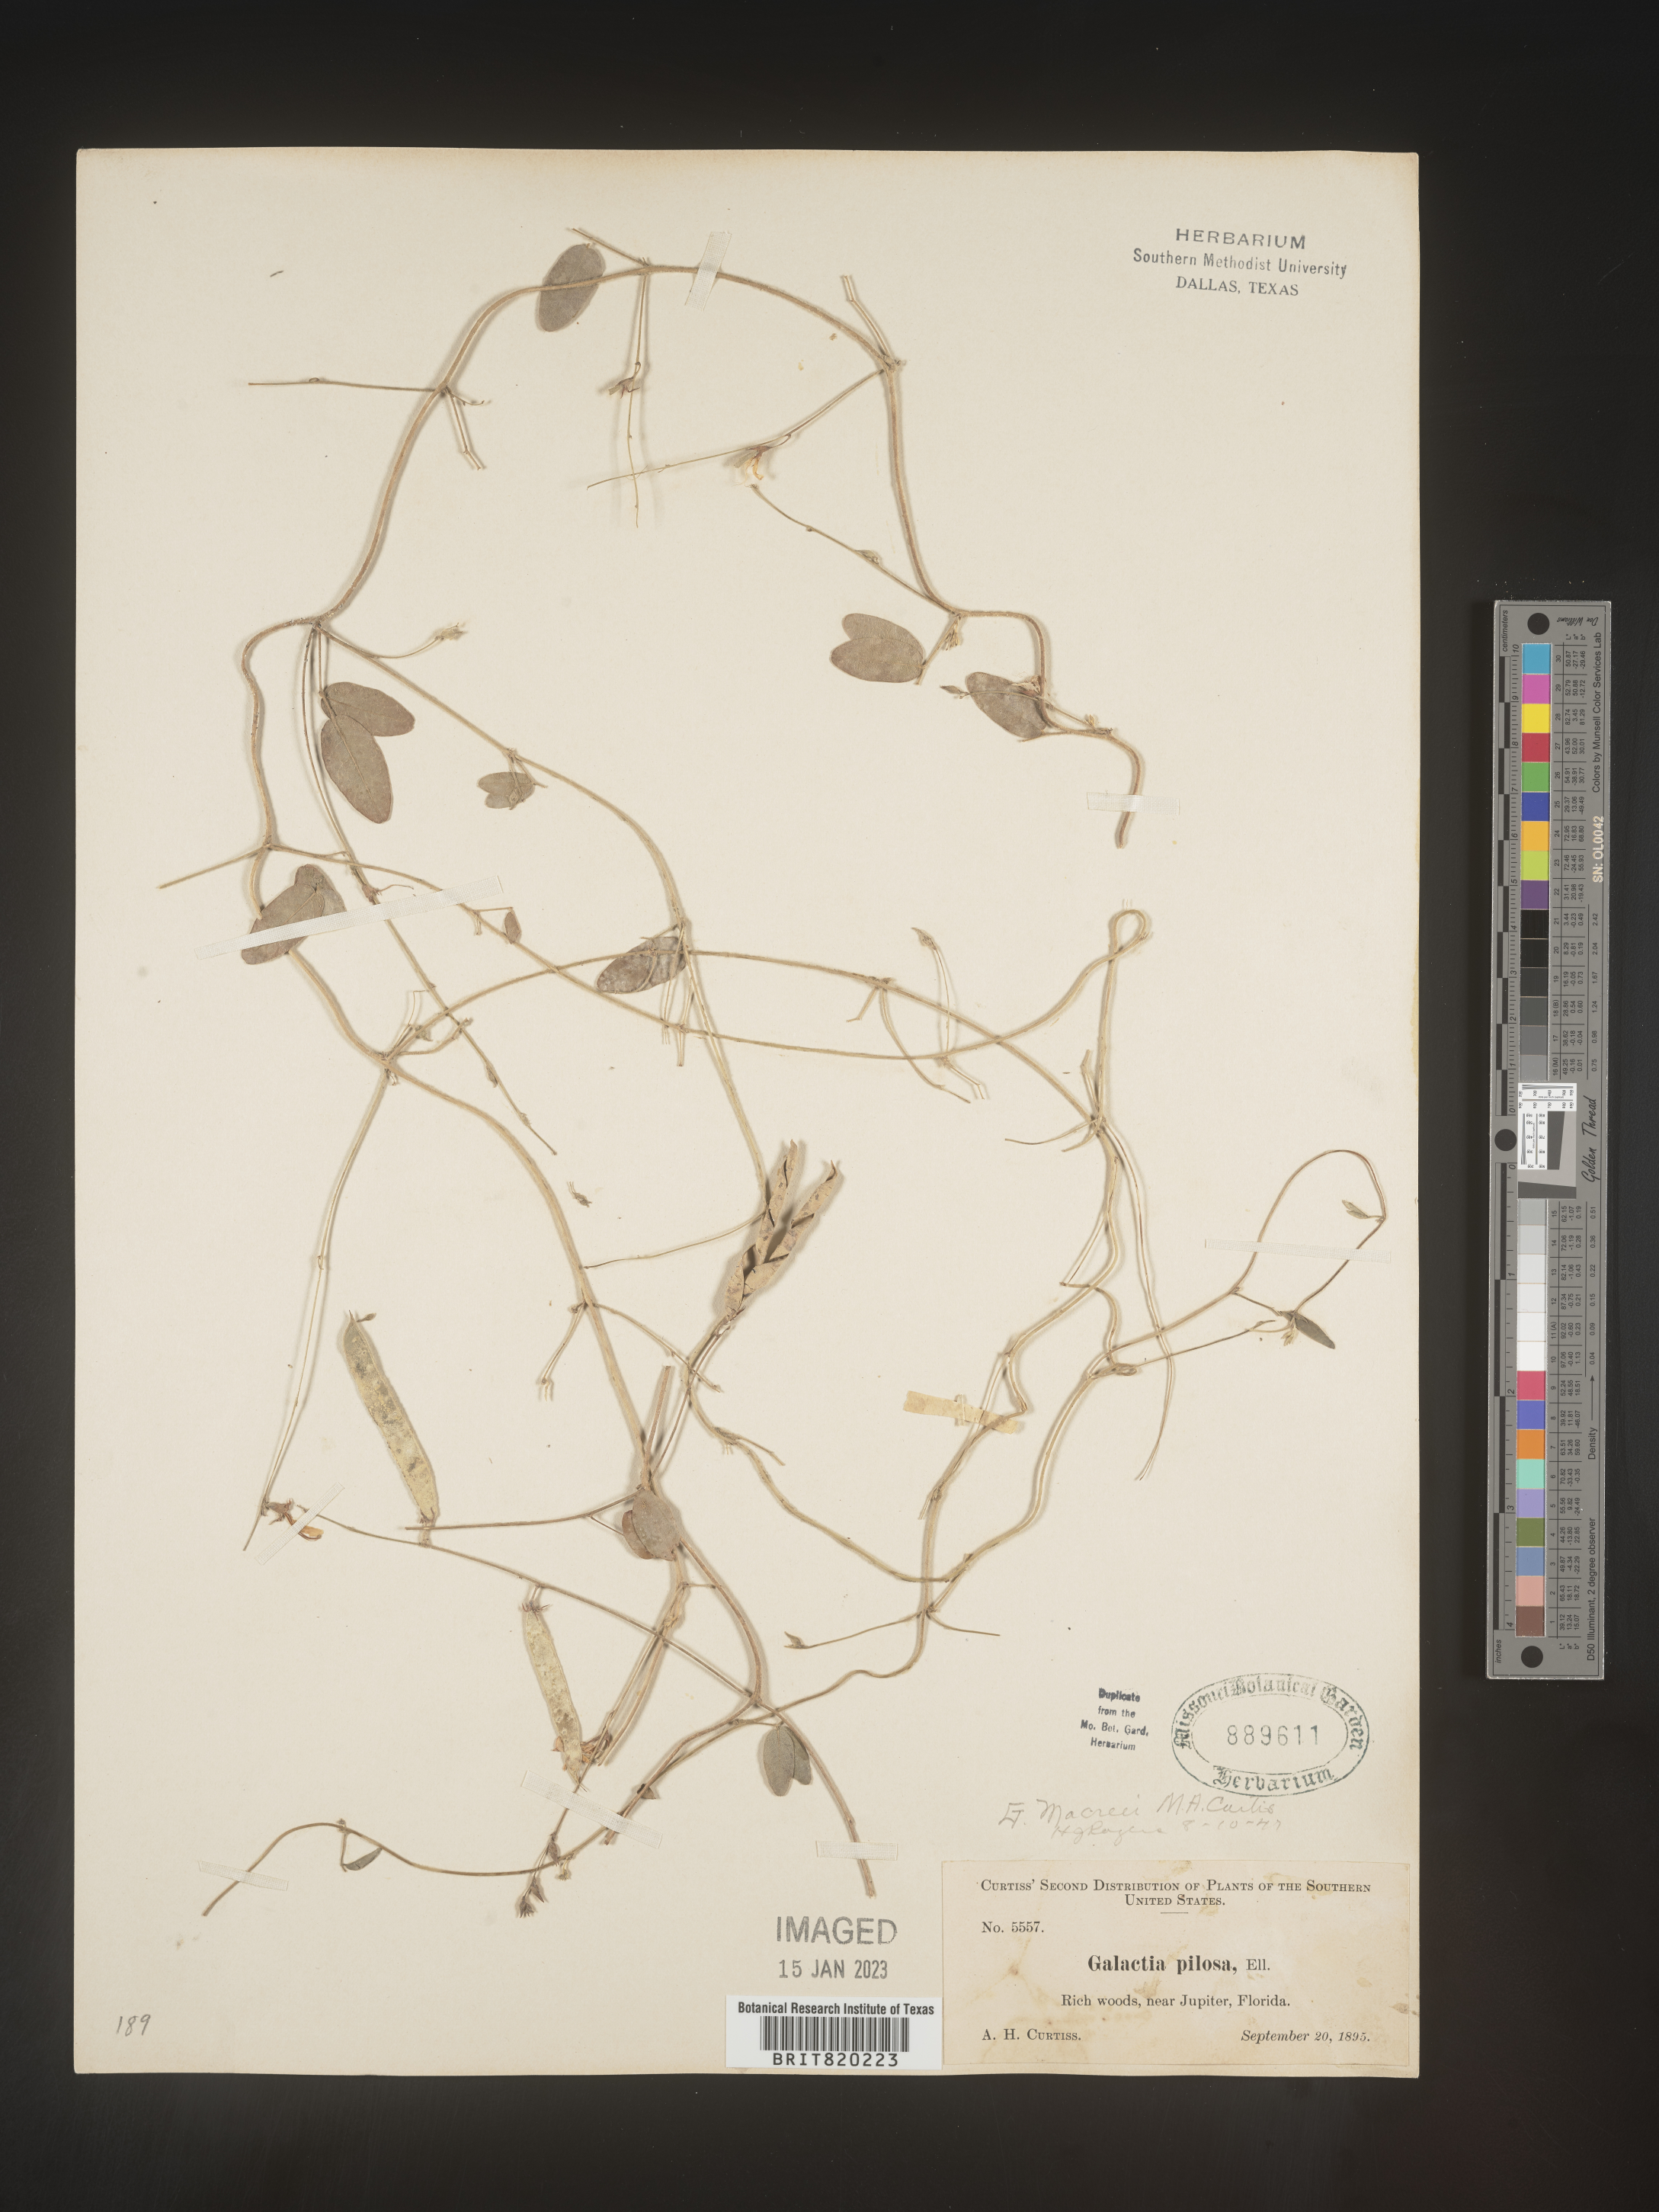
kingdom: Plantae
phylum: Tracheophyta
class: Magnoliopsida
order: Fabales
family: Fabaceae
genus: Galactia
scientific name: Galactia volubilis
